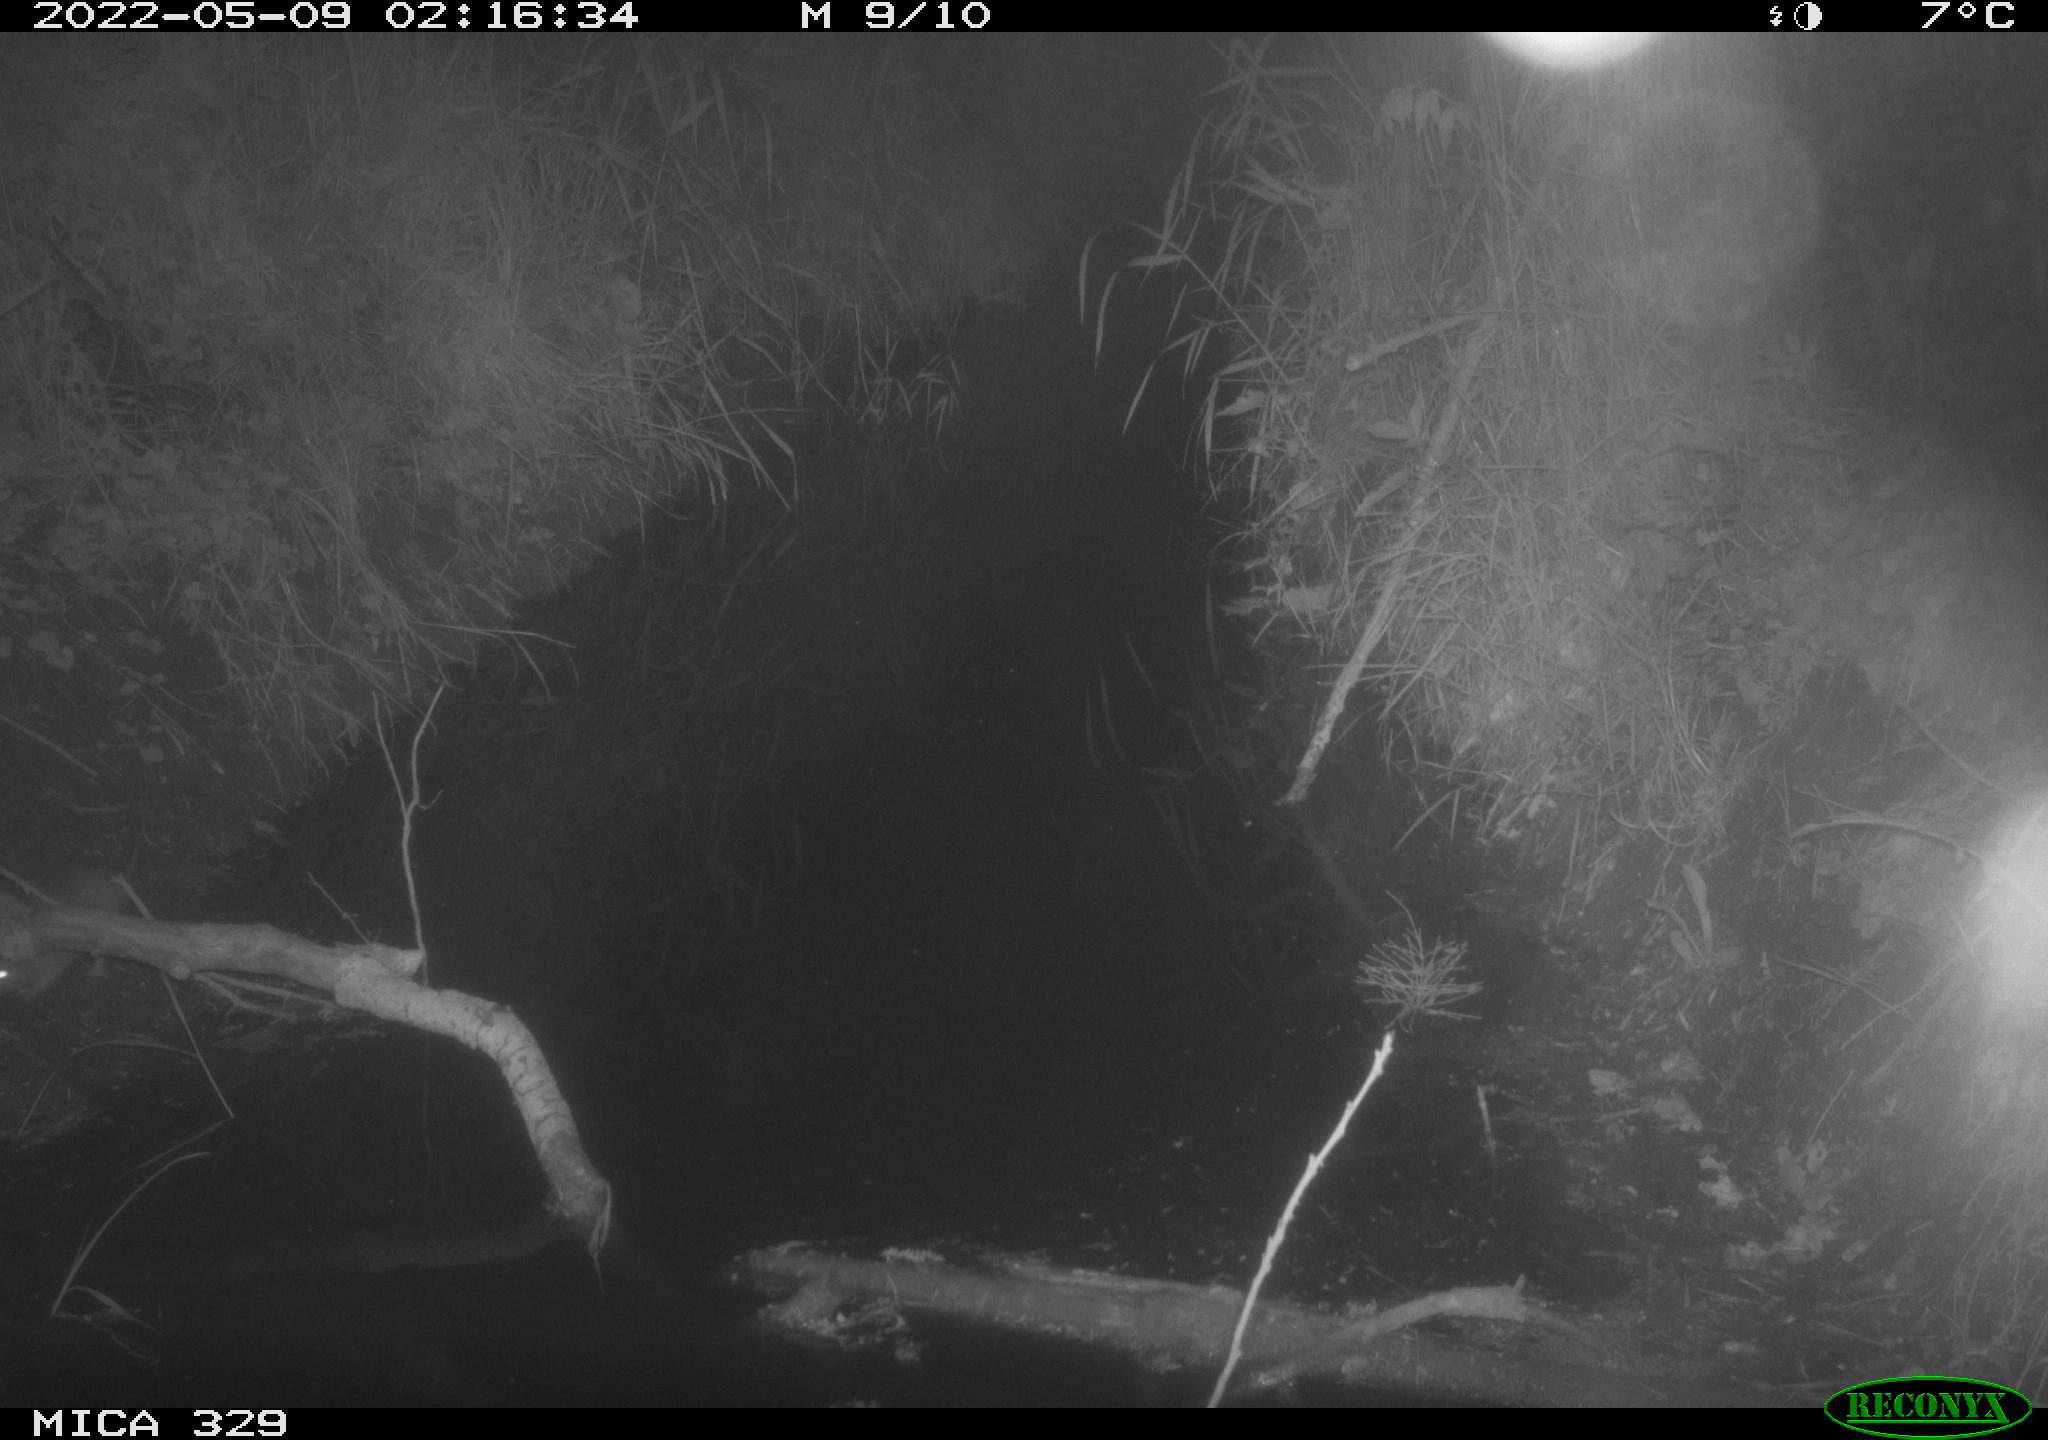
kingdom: Animalia
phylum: Chordata
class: Mammalia
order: Rodentia
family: Muridae
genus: Rattus
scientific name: Rattus norvegicus
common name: Brown rat
